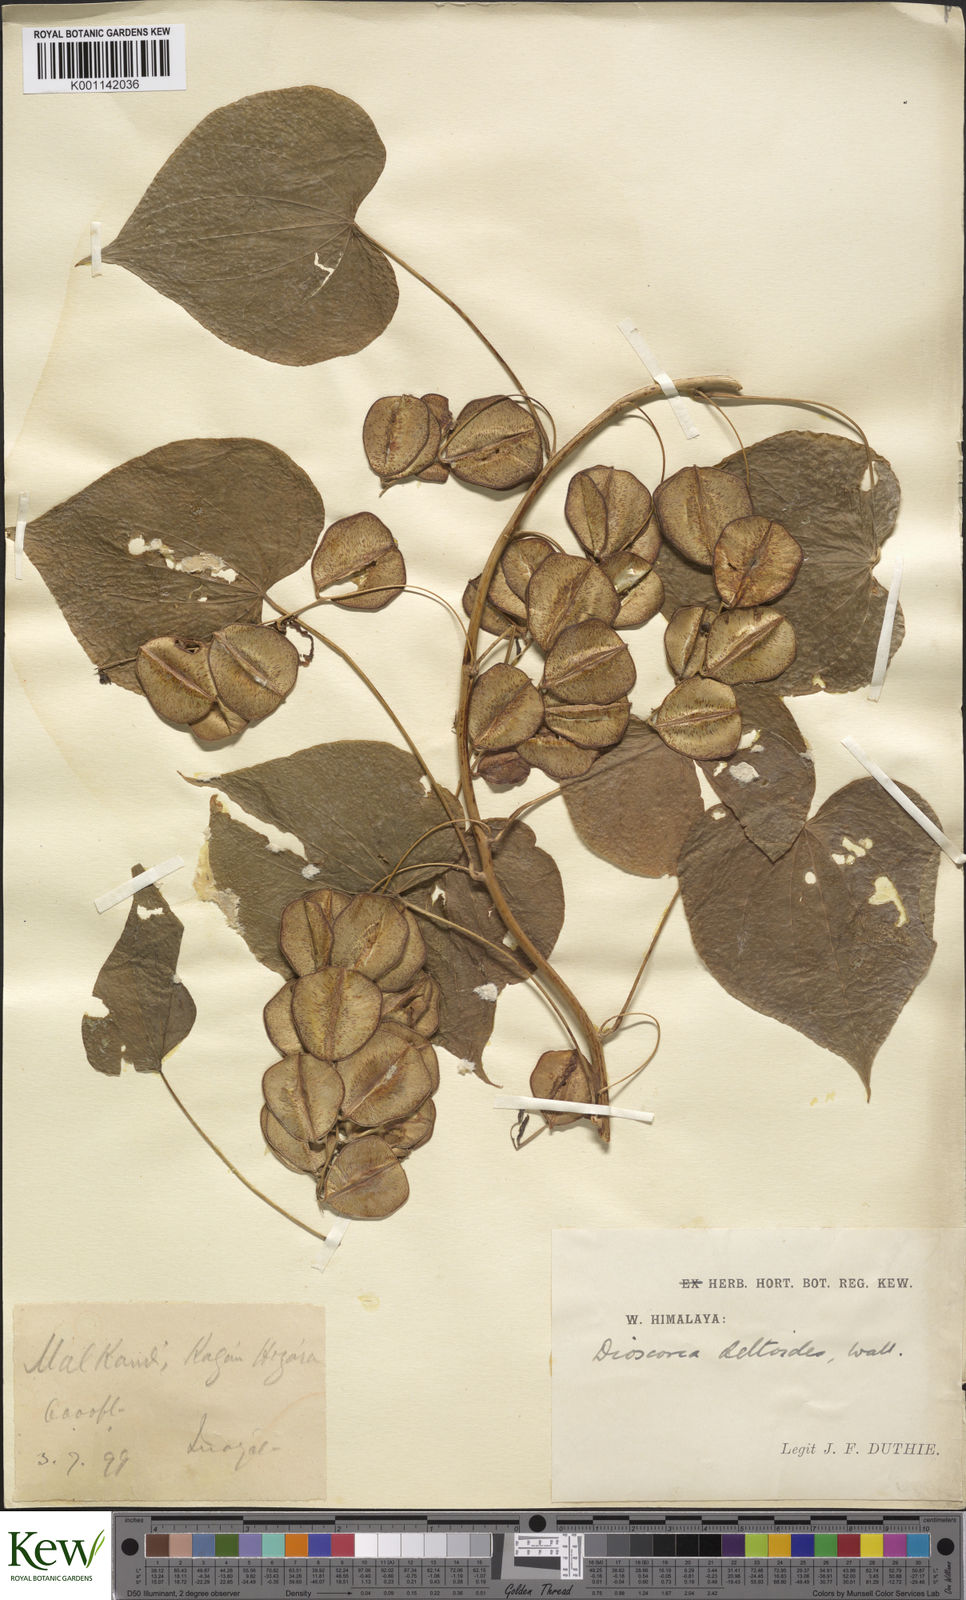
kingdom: Plantae
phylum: Tracheophyta
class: Liliopsida
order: Dioscoreales
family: Dioscoreaceae
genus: Dioscorea
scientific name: Dioscorea deltoidea
